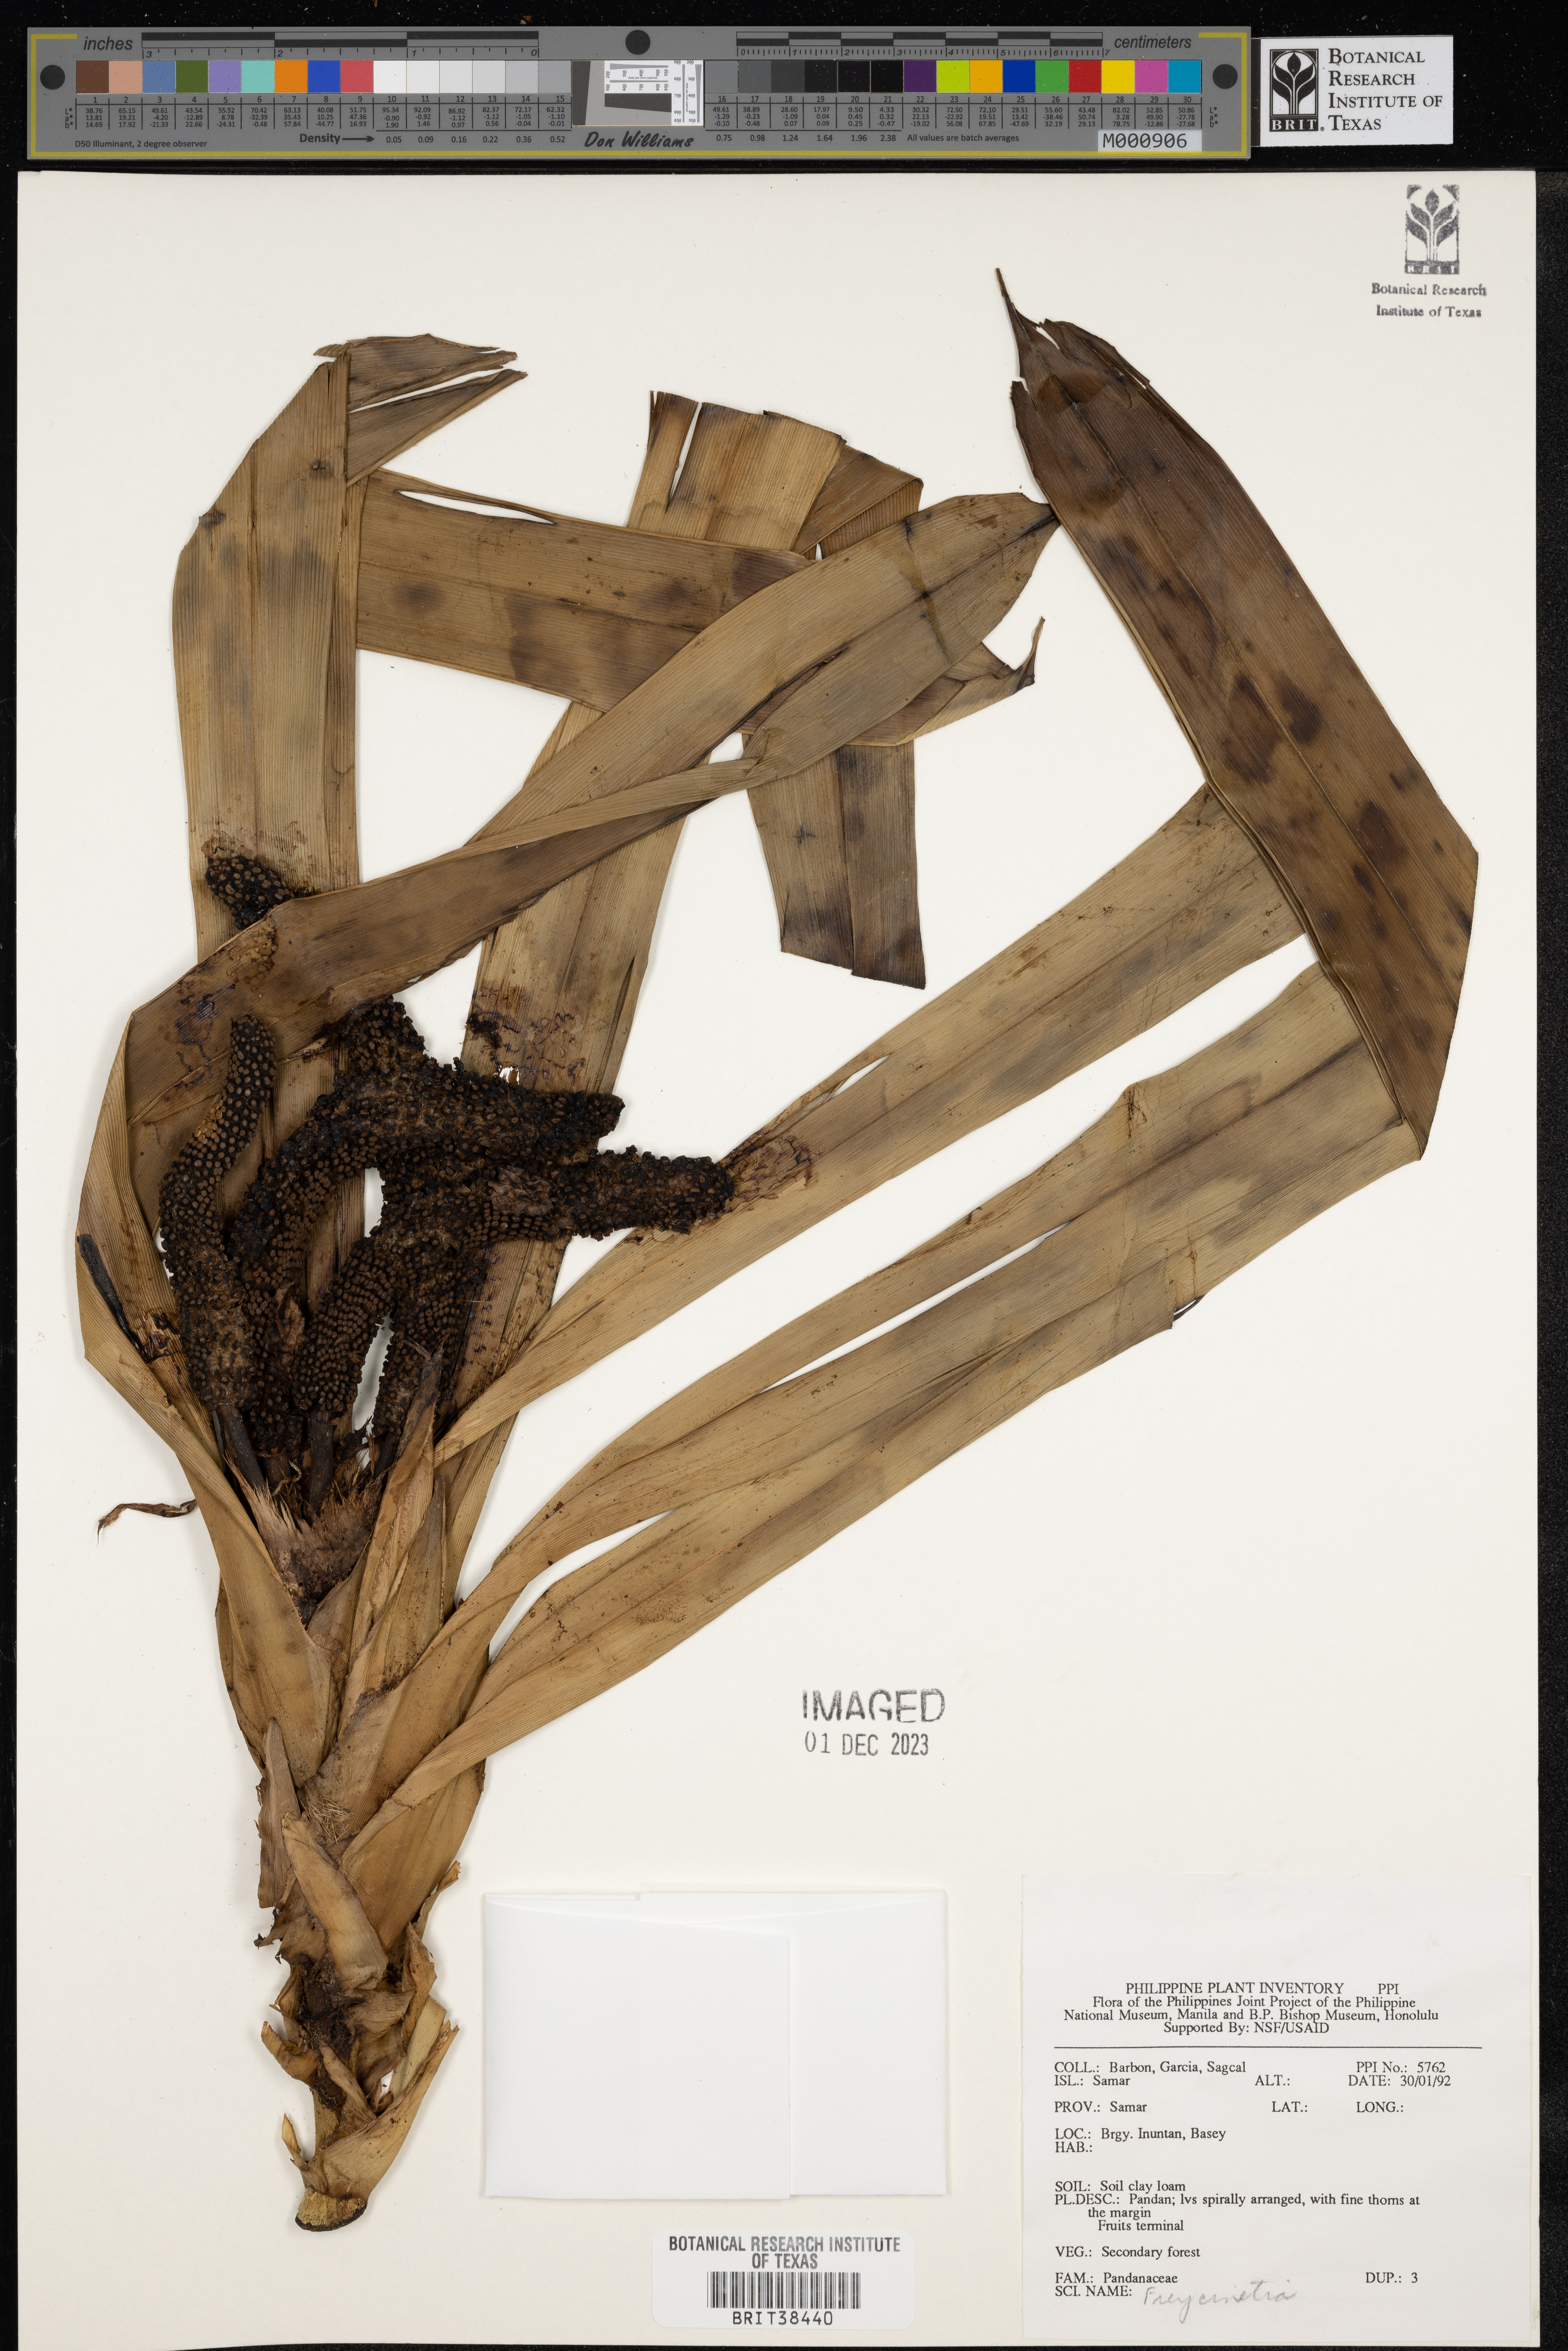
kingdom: Plantae
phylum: Tracheophyta
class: Liliopsida
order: Pandanales
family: Pandanaceae
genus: Freycinetia
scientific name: Freycinetia
